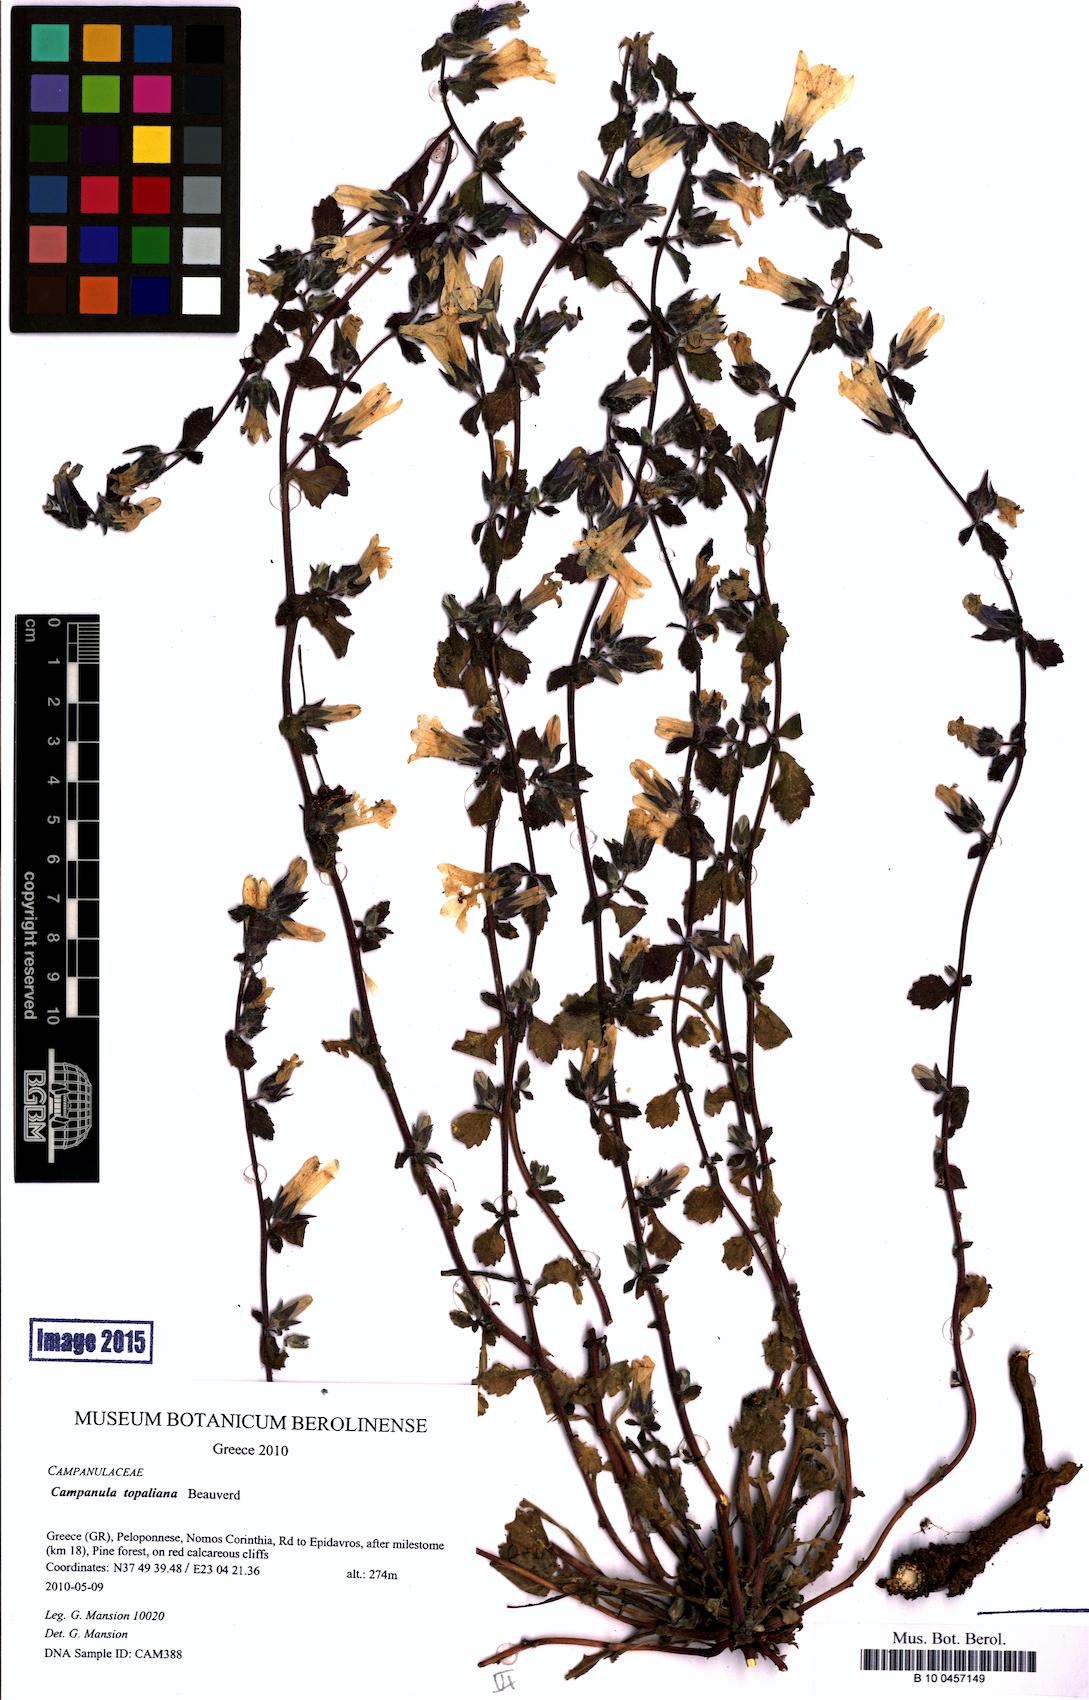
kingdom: Plantae
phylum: Tracheophyta
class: Magnoliopsida
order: Asterales
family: Campanulaceae
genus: Campanula
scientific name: Campanula topaliana
